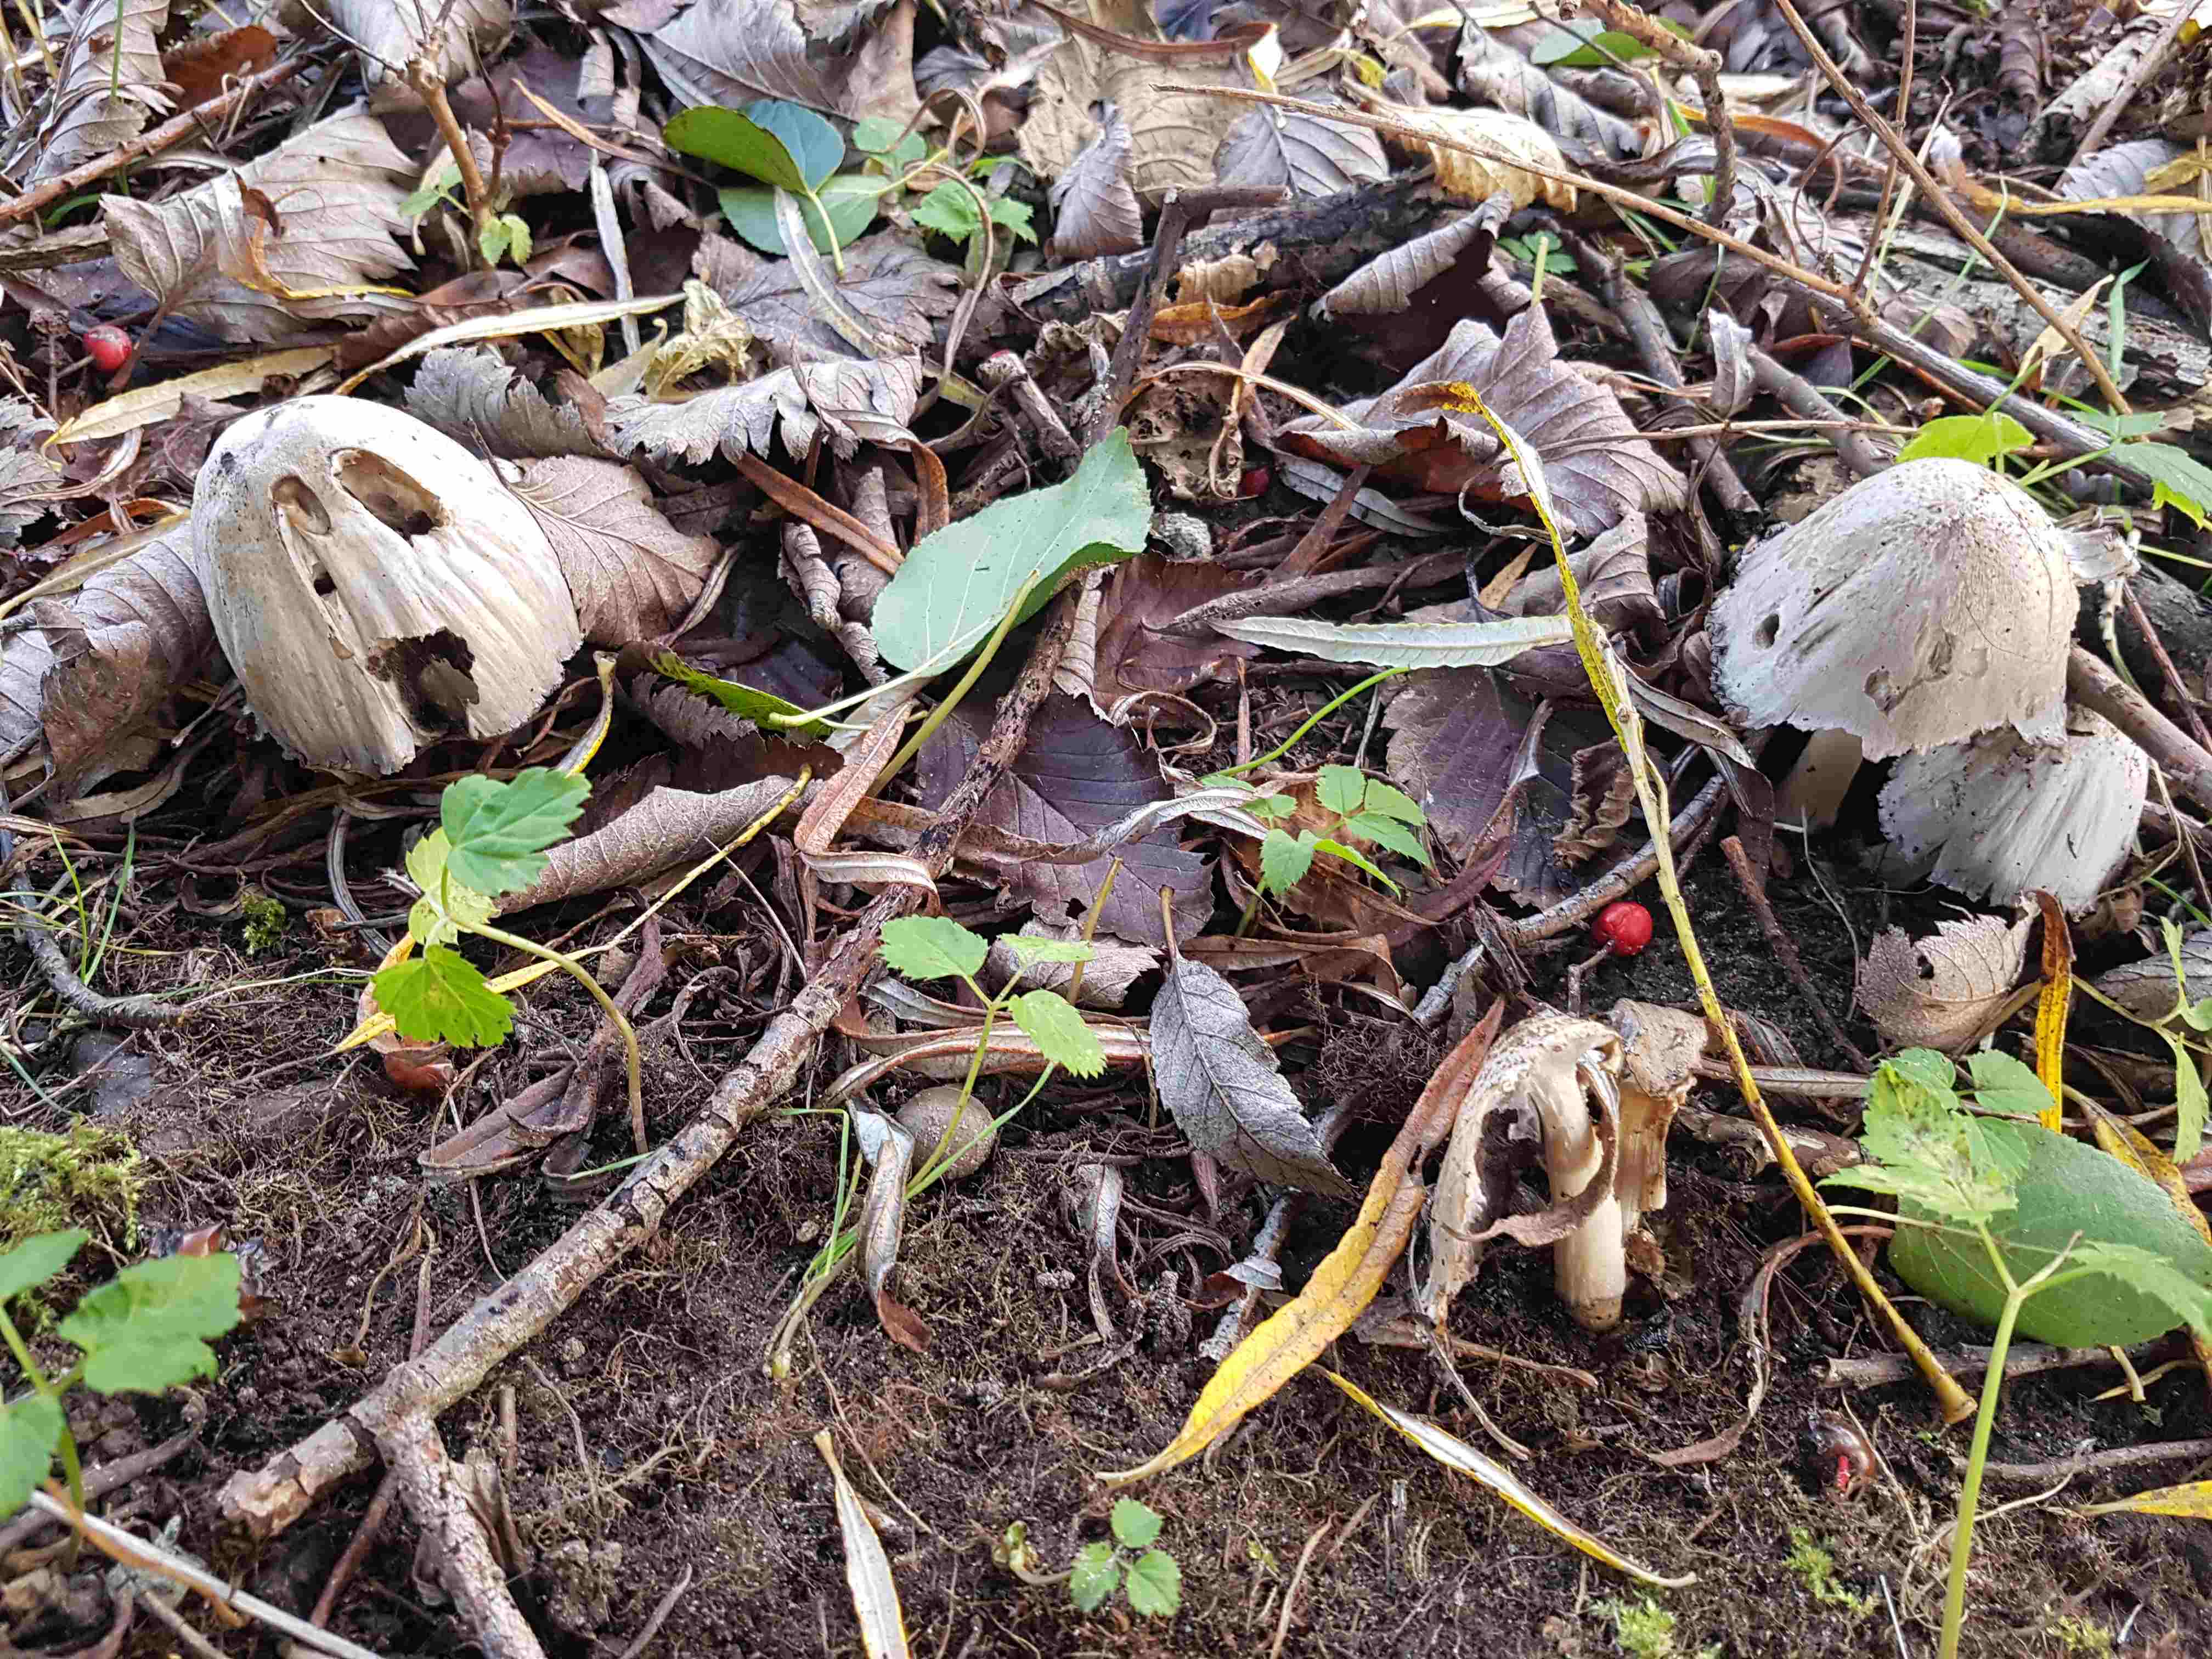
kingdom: Fungi
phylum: Basidiomycota
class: Agaricomycetes
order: Agaricales
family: Psathyrellaceae
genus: Coprinopsis
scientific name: Coprinopsis
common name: blækhat
